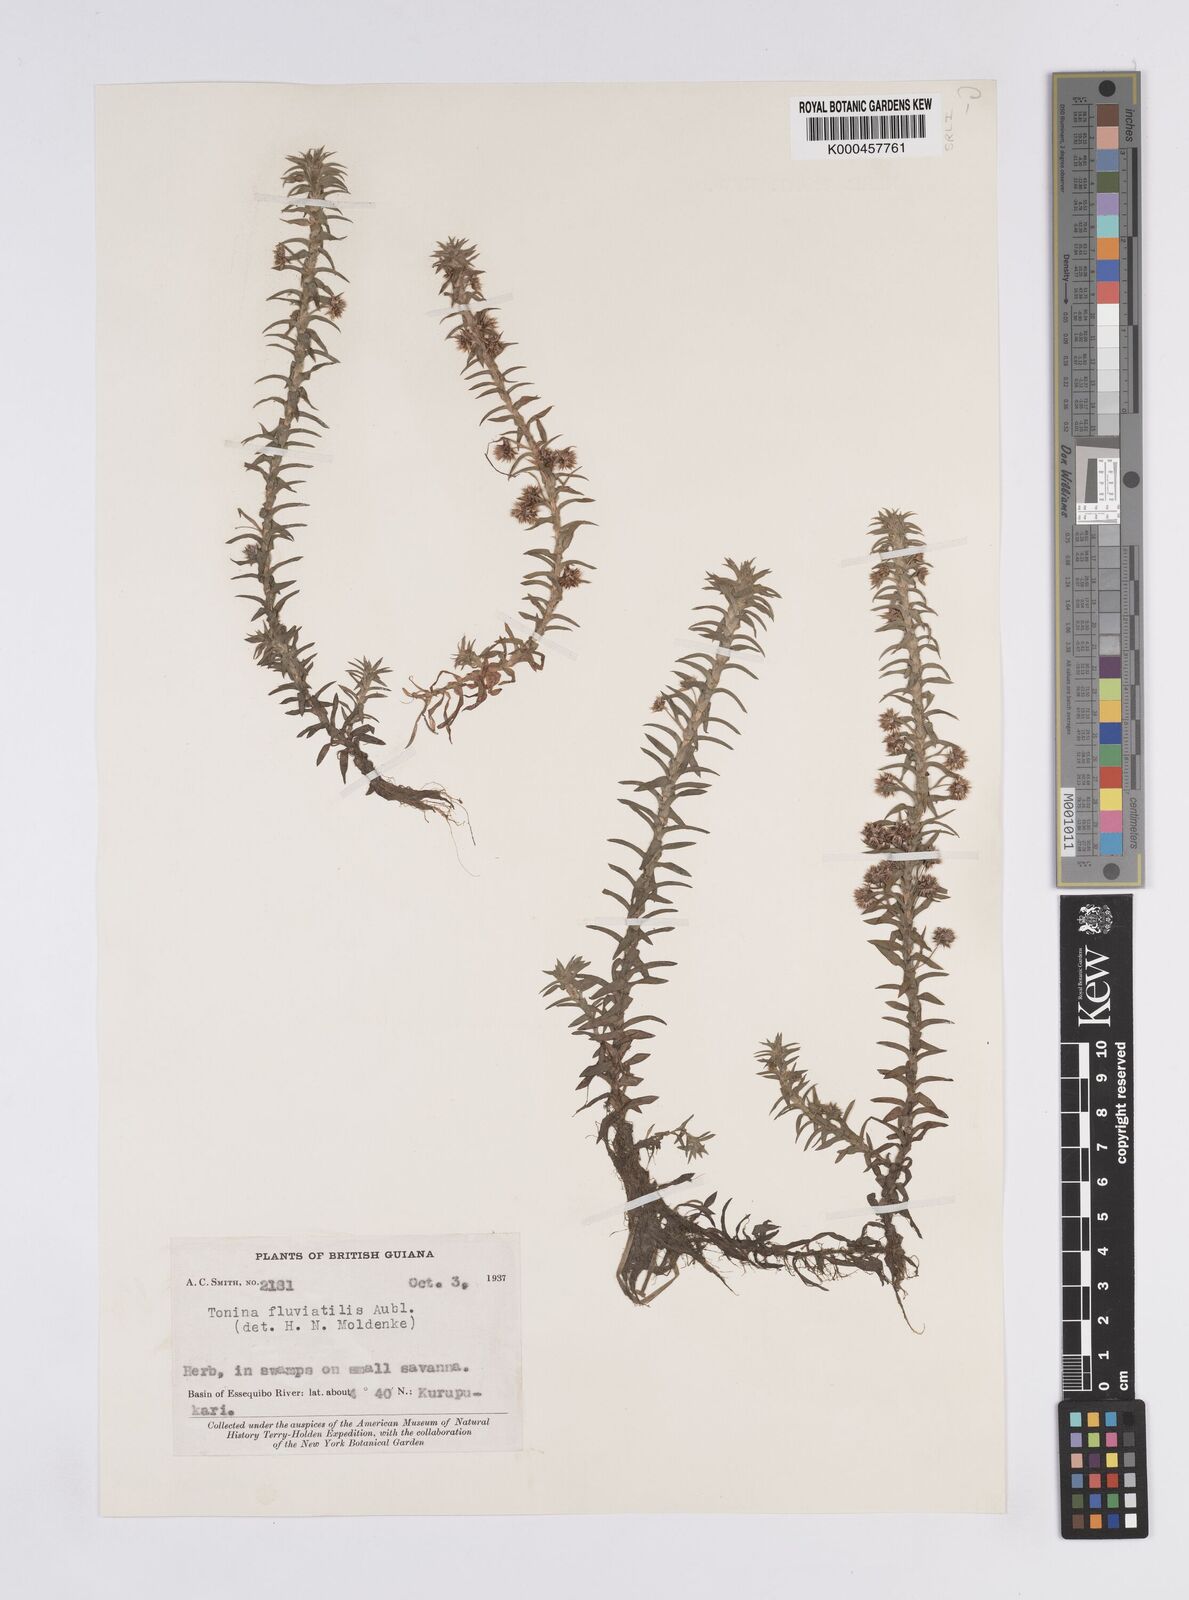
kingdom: Plantae
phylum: Tracheophyta
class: Liliopsida
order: Poales
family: Eriocaulaceae
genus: Paepalanthus
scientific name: Paepalanthus fluviatilis
